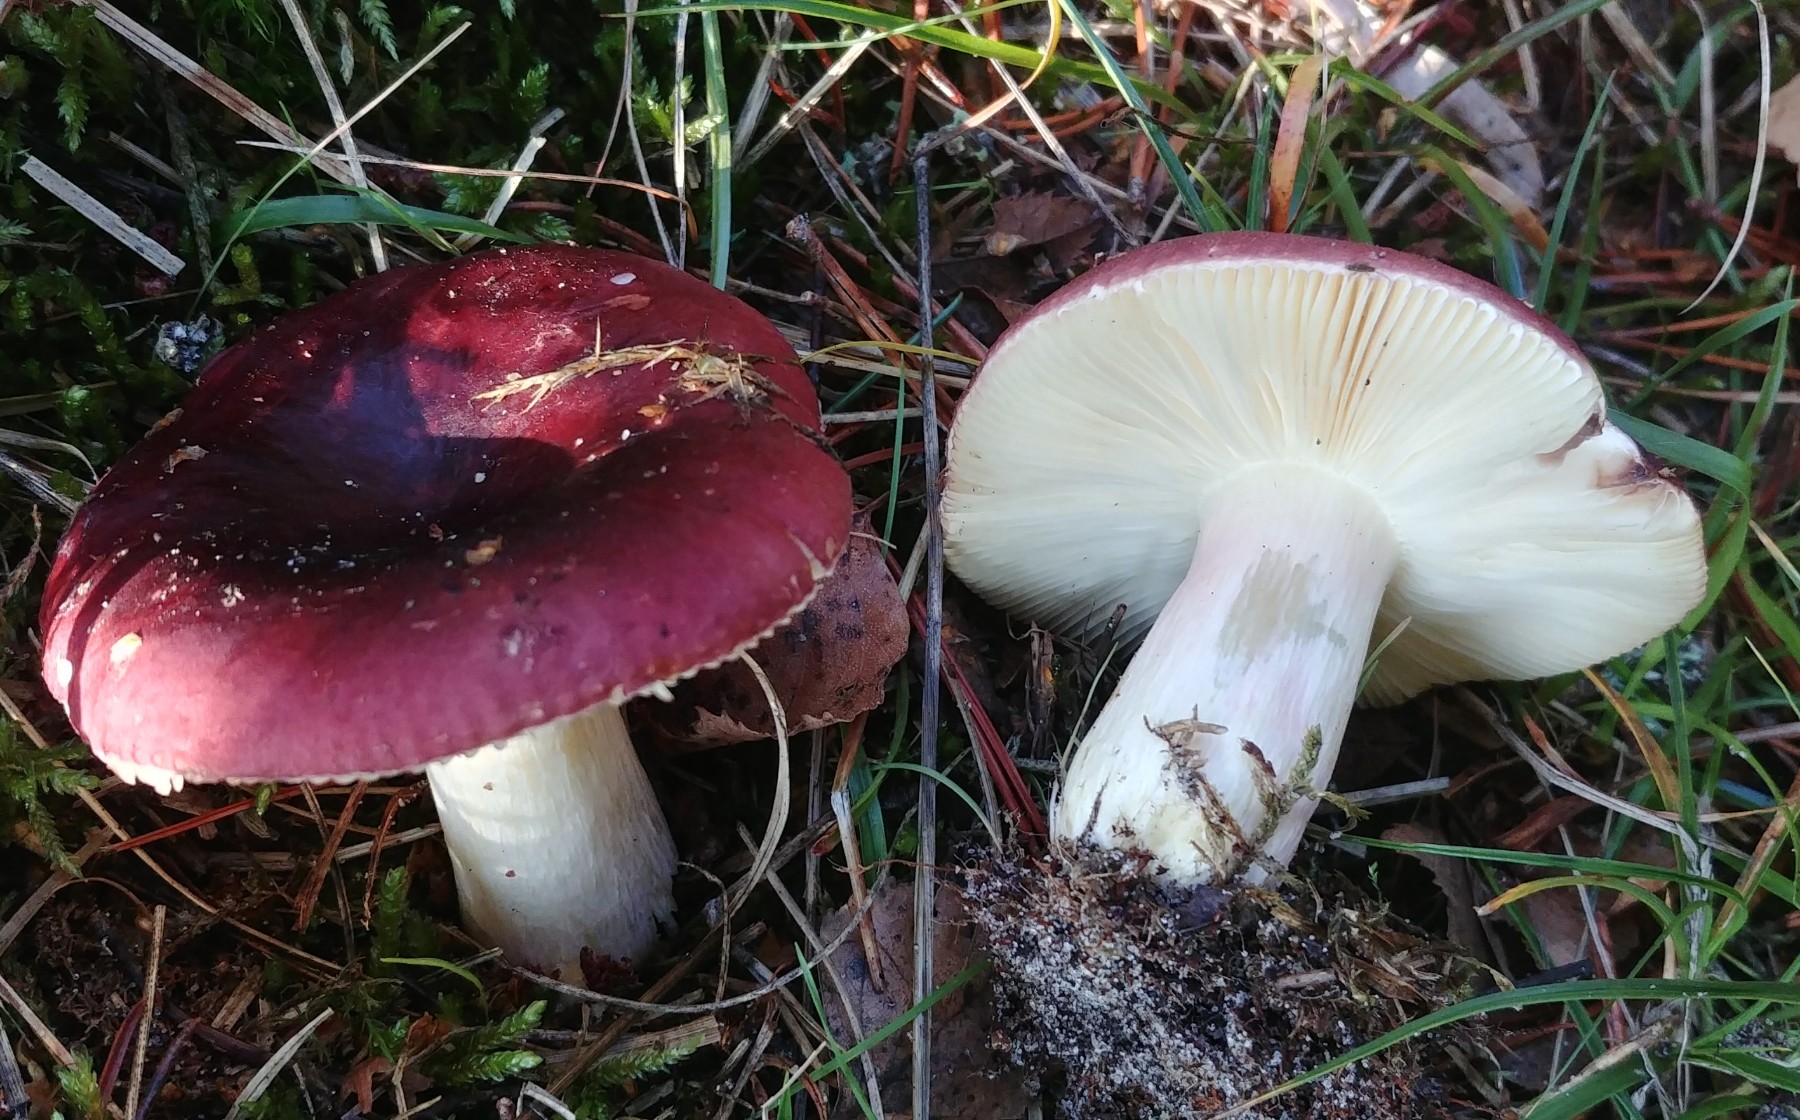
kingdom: Fungi
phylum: Basidiomycota
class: Agaricomycetes
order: Russulales
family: Russulaceae
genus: Russula
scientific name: Russula xerampelina
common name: hummer-skørhat
